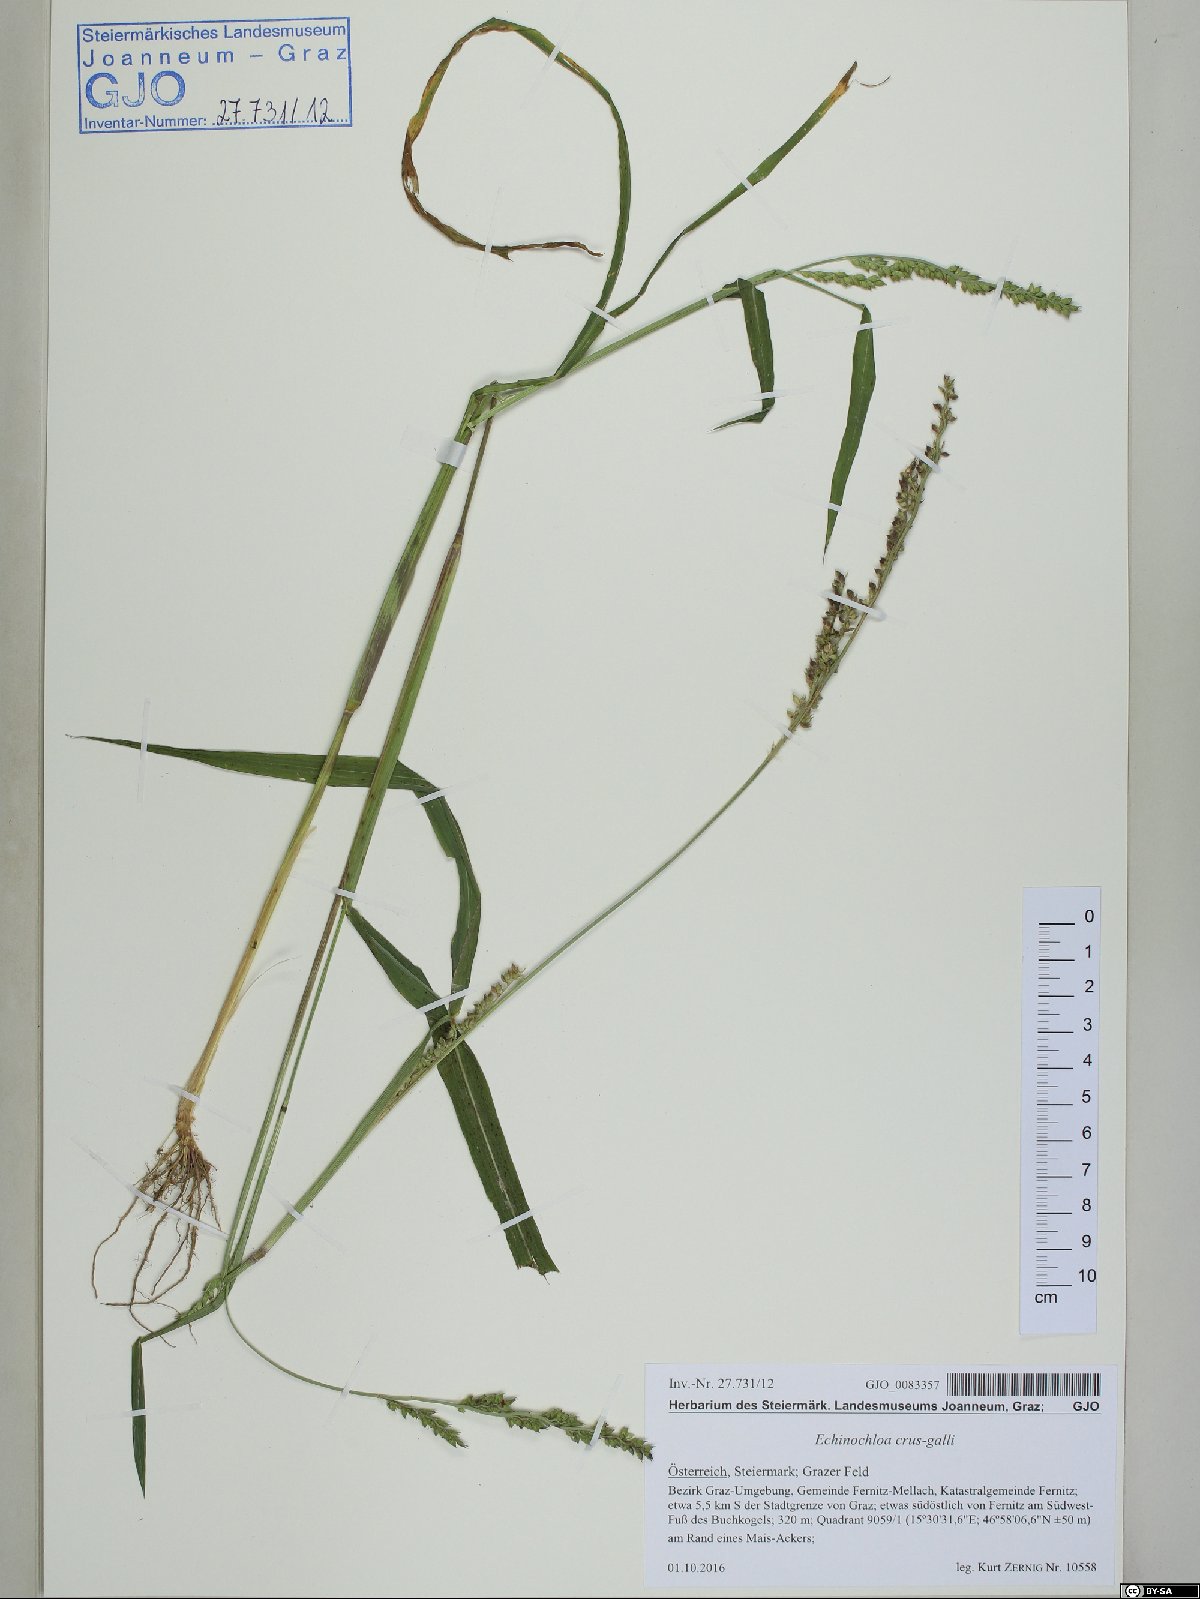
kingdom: Plantae
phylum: Tracheophyta
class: Liliopsida
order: Poales
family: Poaceae
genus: Echinochloa
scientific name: Echinochloa crus-galli
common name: Cockspur
